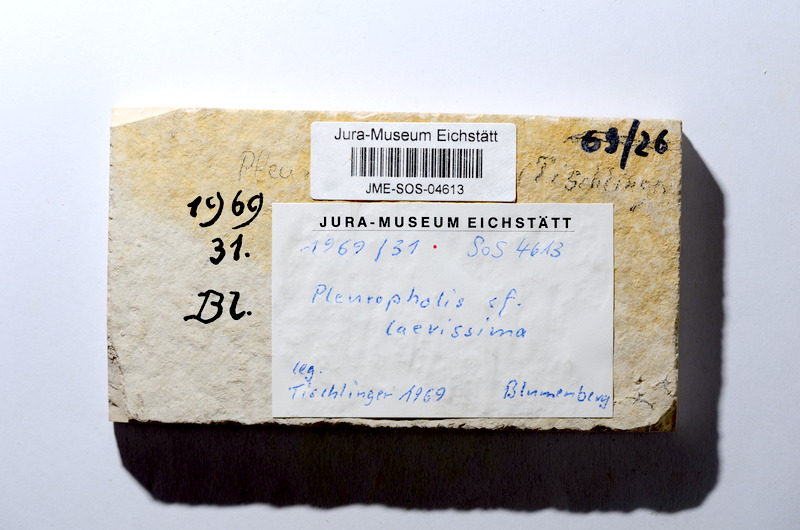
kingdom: Animalia
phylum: Chordata
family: Pleuropholidae
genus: Pleuropholis
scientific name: Pleuropholis laevissima
